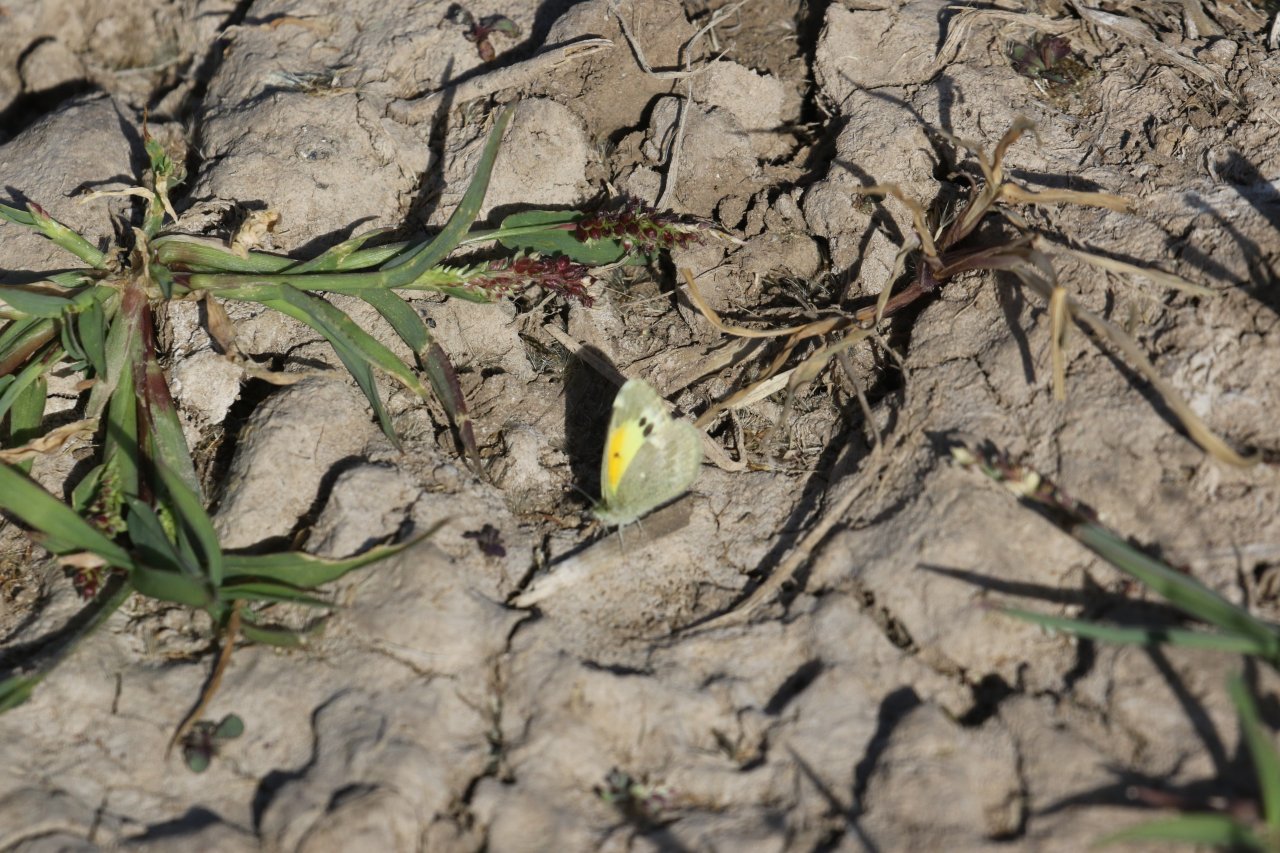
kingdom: Animalia
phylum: Arthropoda
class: Insecta
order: Lepidoptera
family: Pieridae
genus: Nathalis
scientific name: Nathalis iole
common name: Dainty Sulphur
